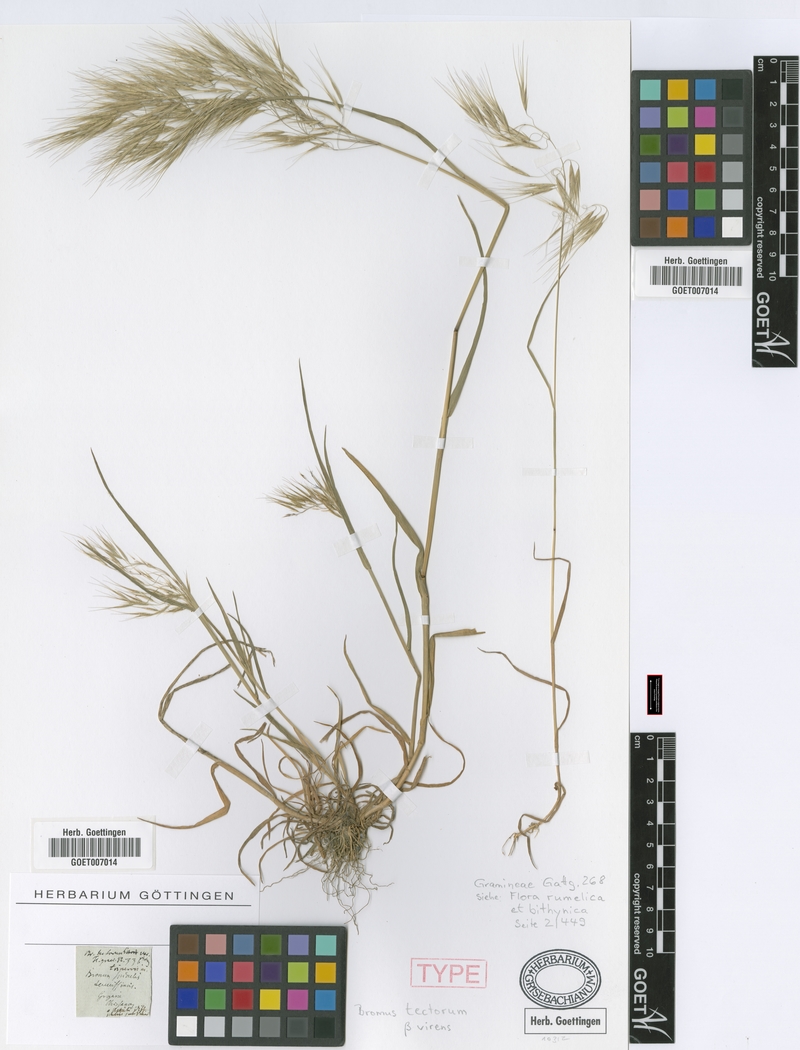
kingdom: Plantae
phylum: Tracheophyta
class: Liliopsida
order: Poales
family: Poaceae
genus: Bromus
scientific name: Bromus tectorum
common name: Cheatgrass
